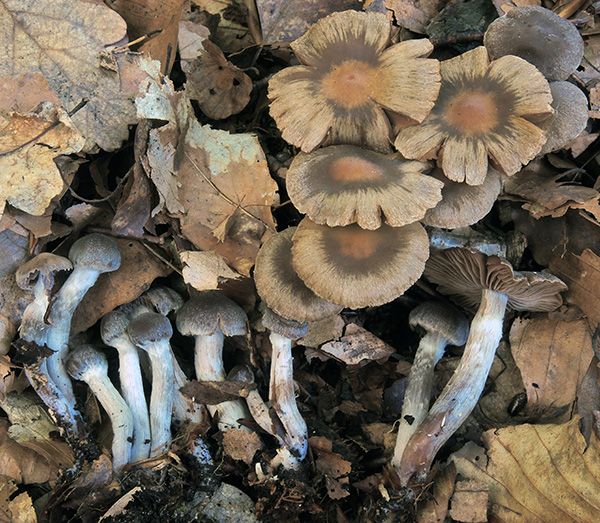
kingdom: Fungi
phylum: Basidiomycota
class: Agaricomycetes
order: Agaricales
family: Cortinariaceae
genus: Cortinarius
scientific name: Cortinarius pilatii
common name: Piláts slørhat
